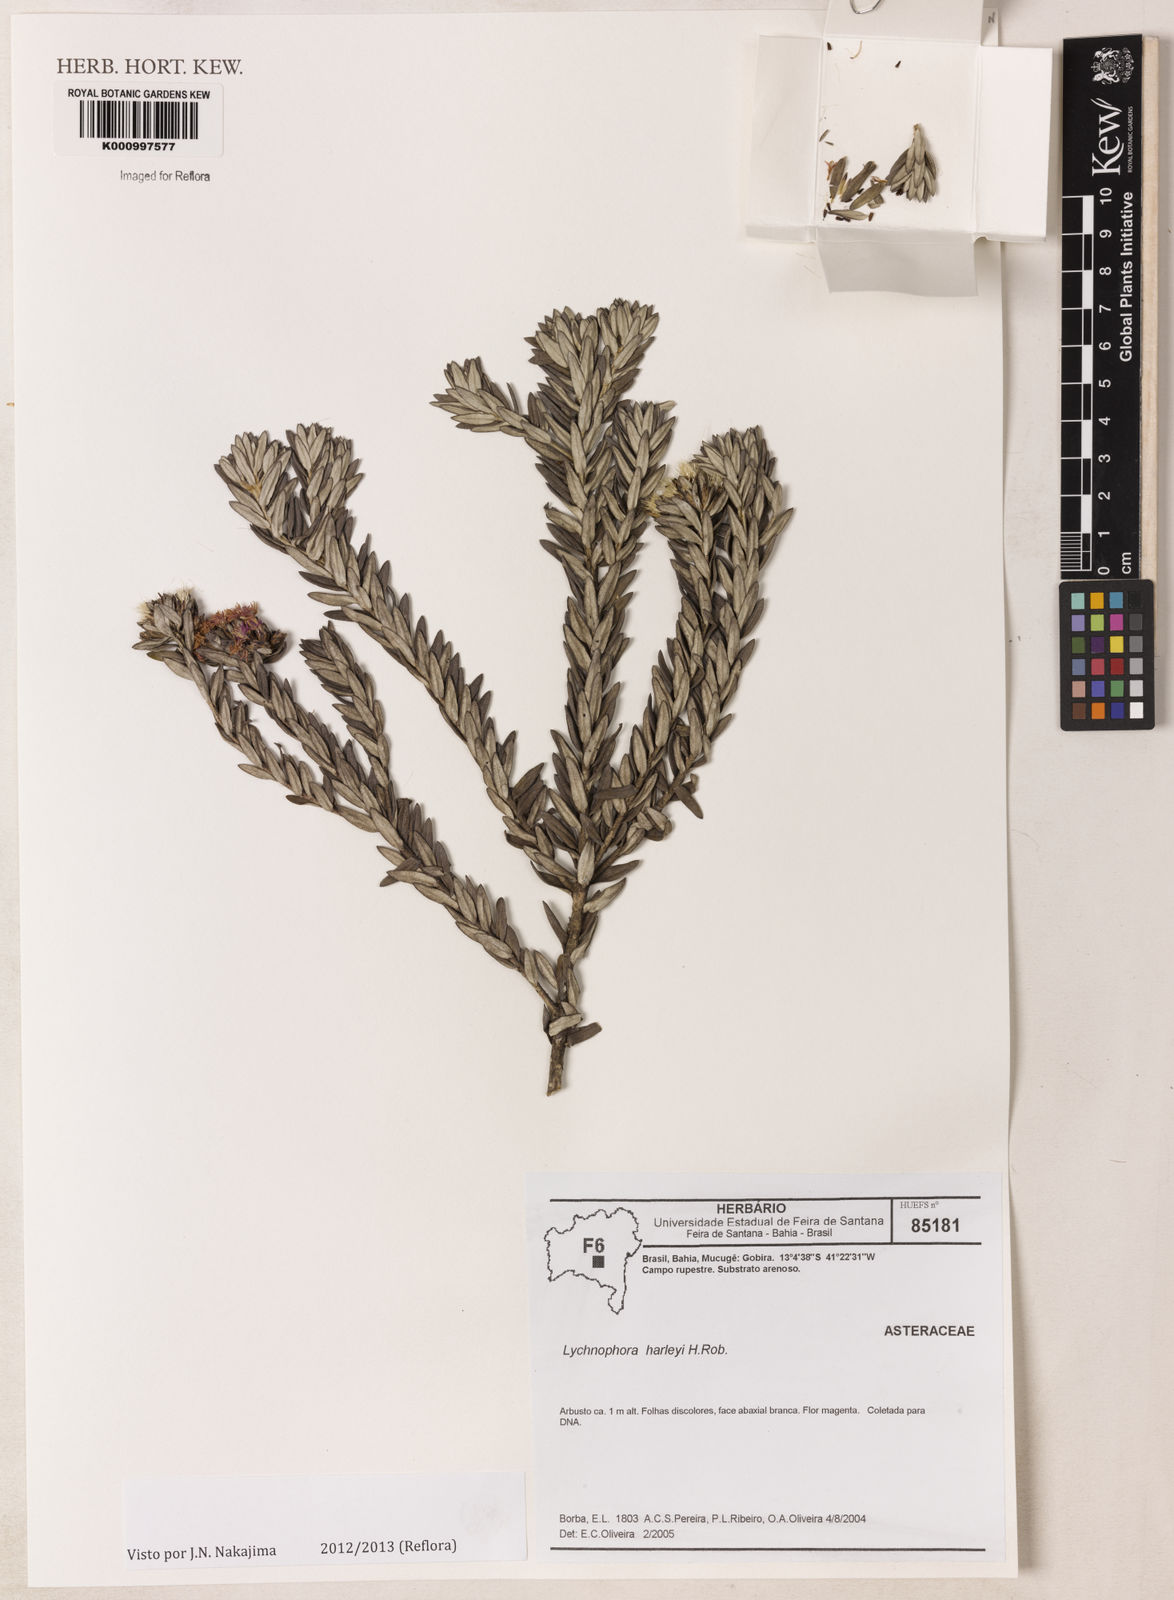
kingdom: Plantae
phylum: Tracheophyta
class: Magnoliopsida
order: Asterales
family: Asteraceae
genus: Lychnophora
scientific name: Lychnophora harleyi
